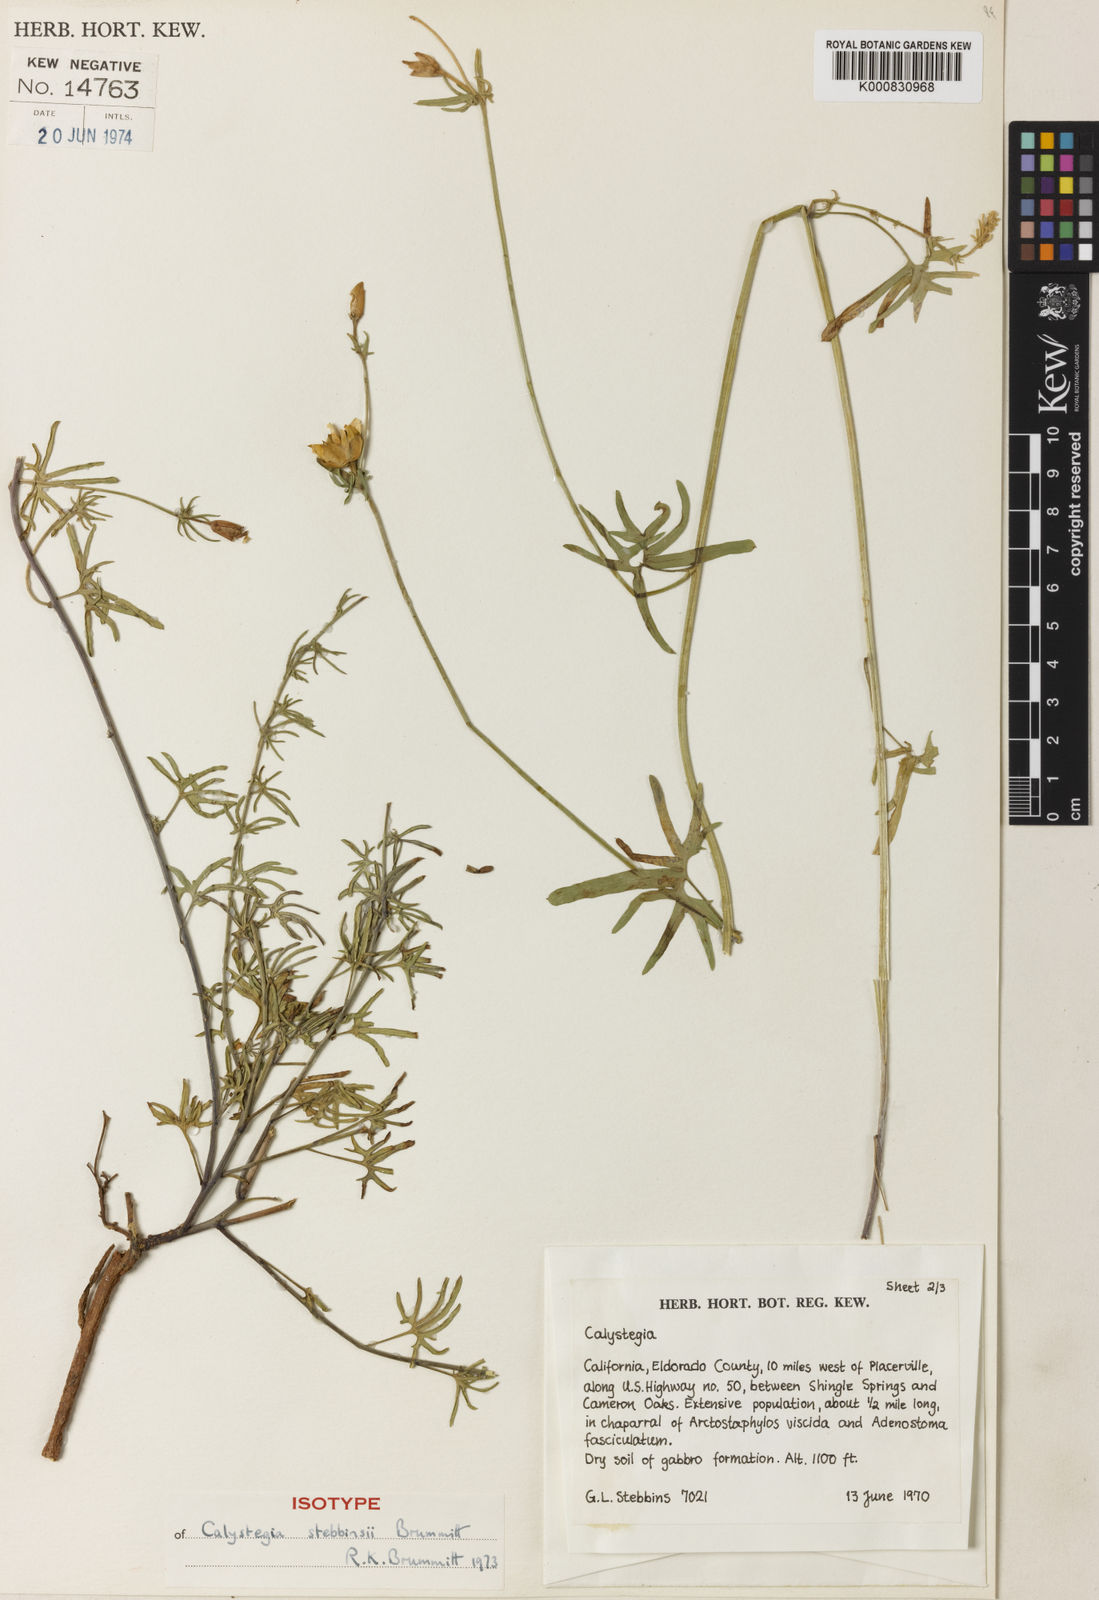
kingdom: Plantae
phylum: Tracheophyta
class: Magnoliopsida
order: Solanales
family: Convolvulaceae
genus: Calystegia
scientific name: Calystegia stebbinsii
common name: Stebbins's-morning-glory
